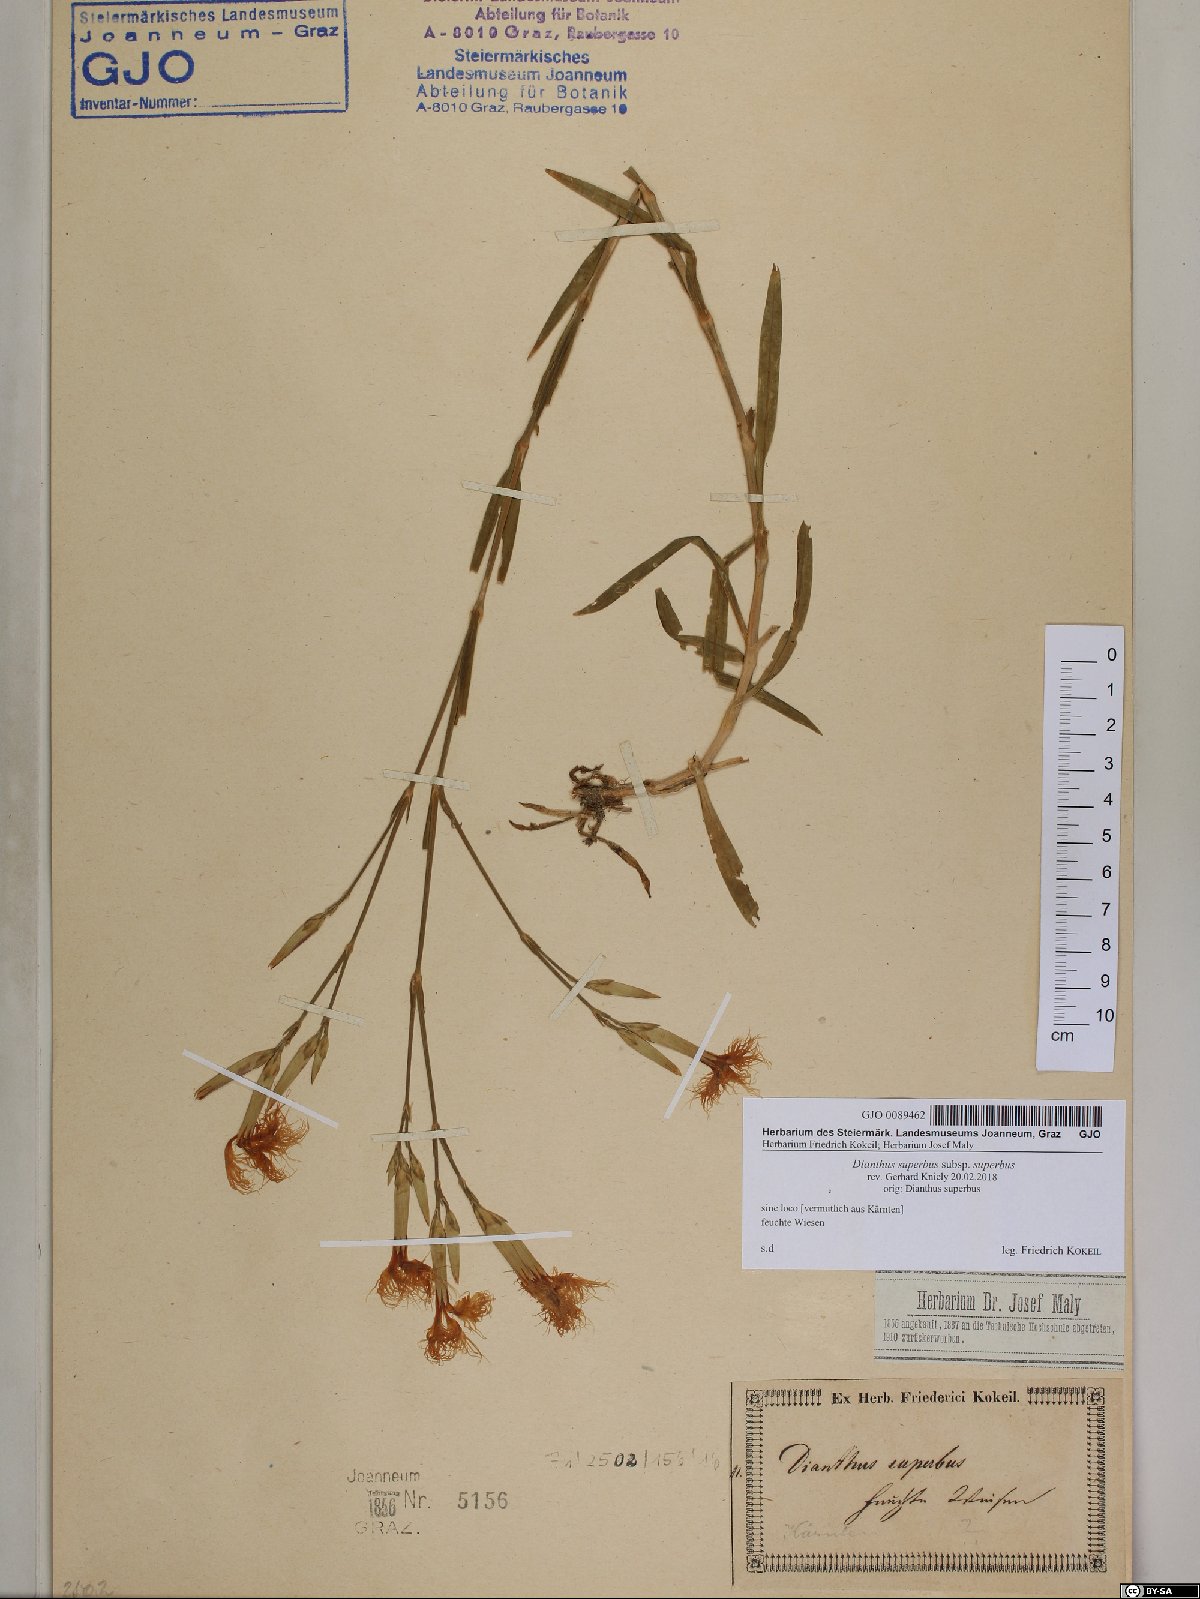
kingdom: Plantae
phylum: Tracheophyta
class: Magnoliopsida
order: Caryophyllales
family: Caryophyllaceae
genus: Dianthus
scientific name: Dianthus superbus
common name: Fringed pink
